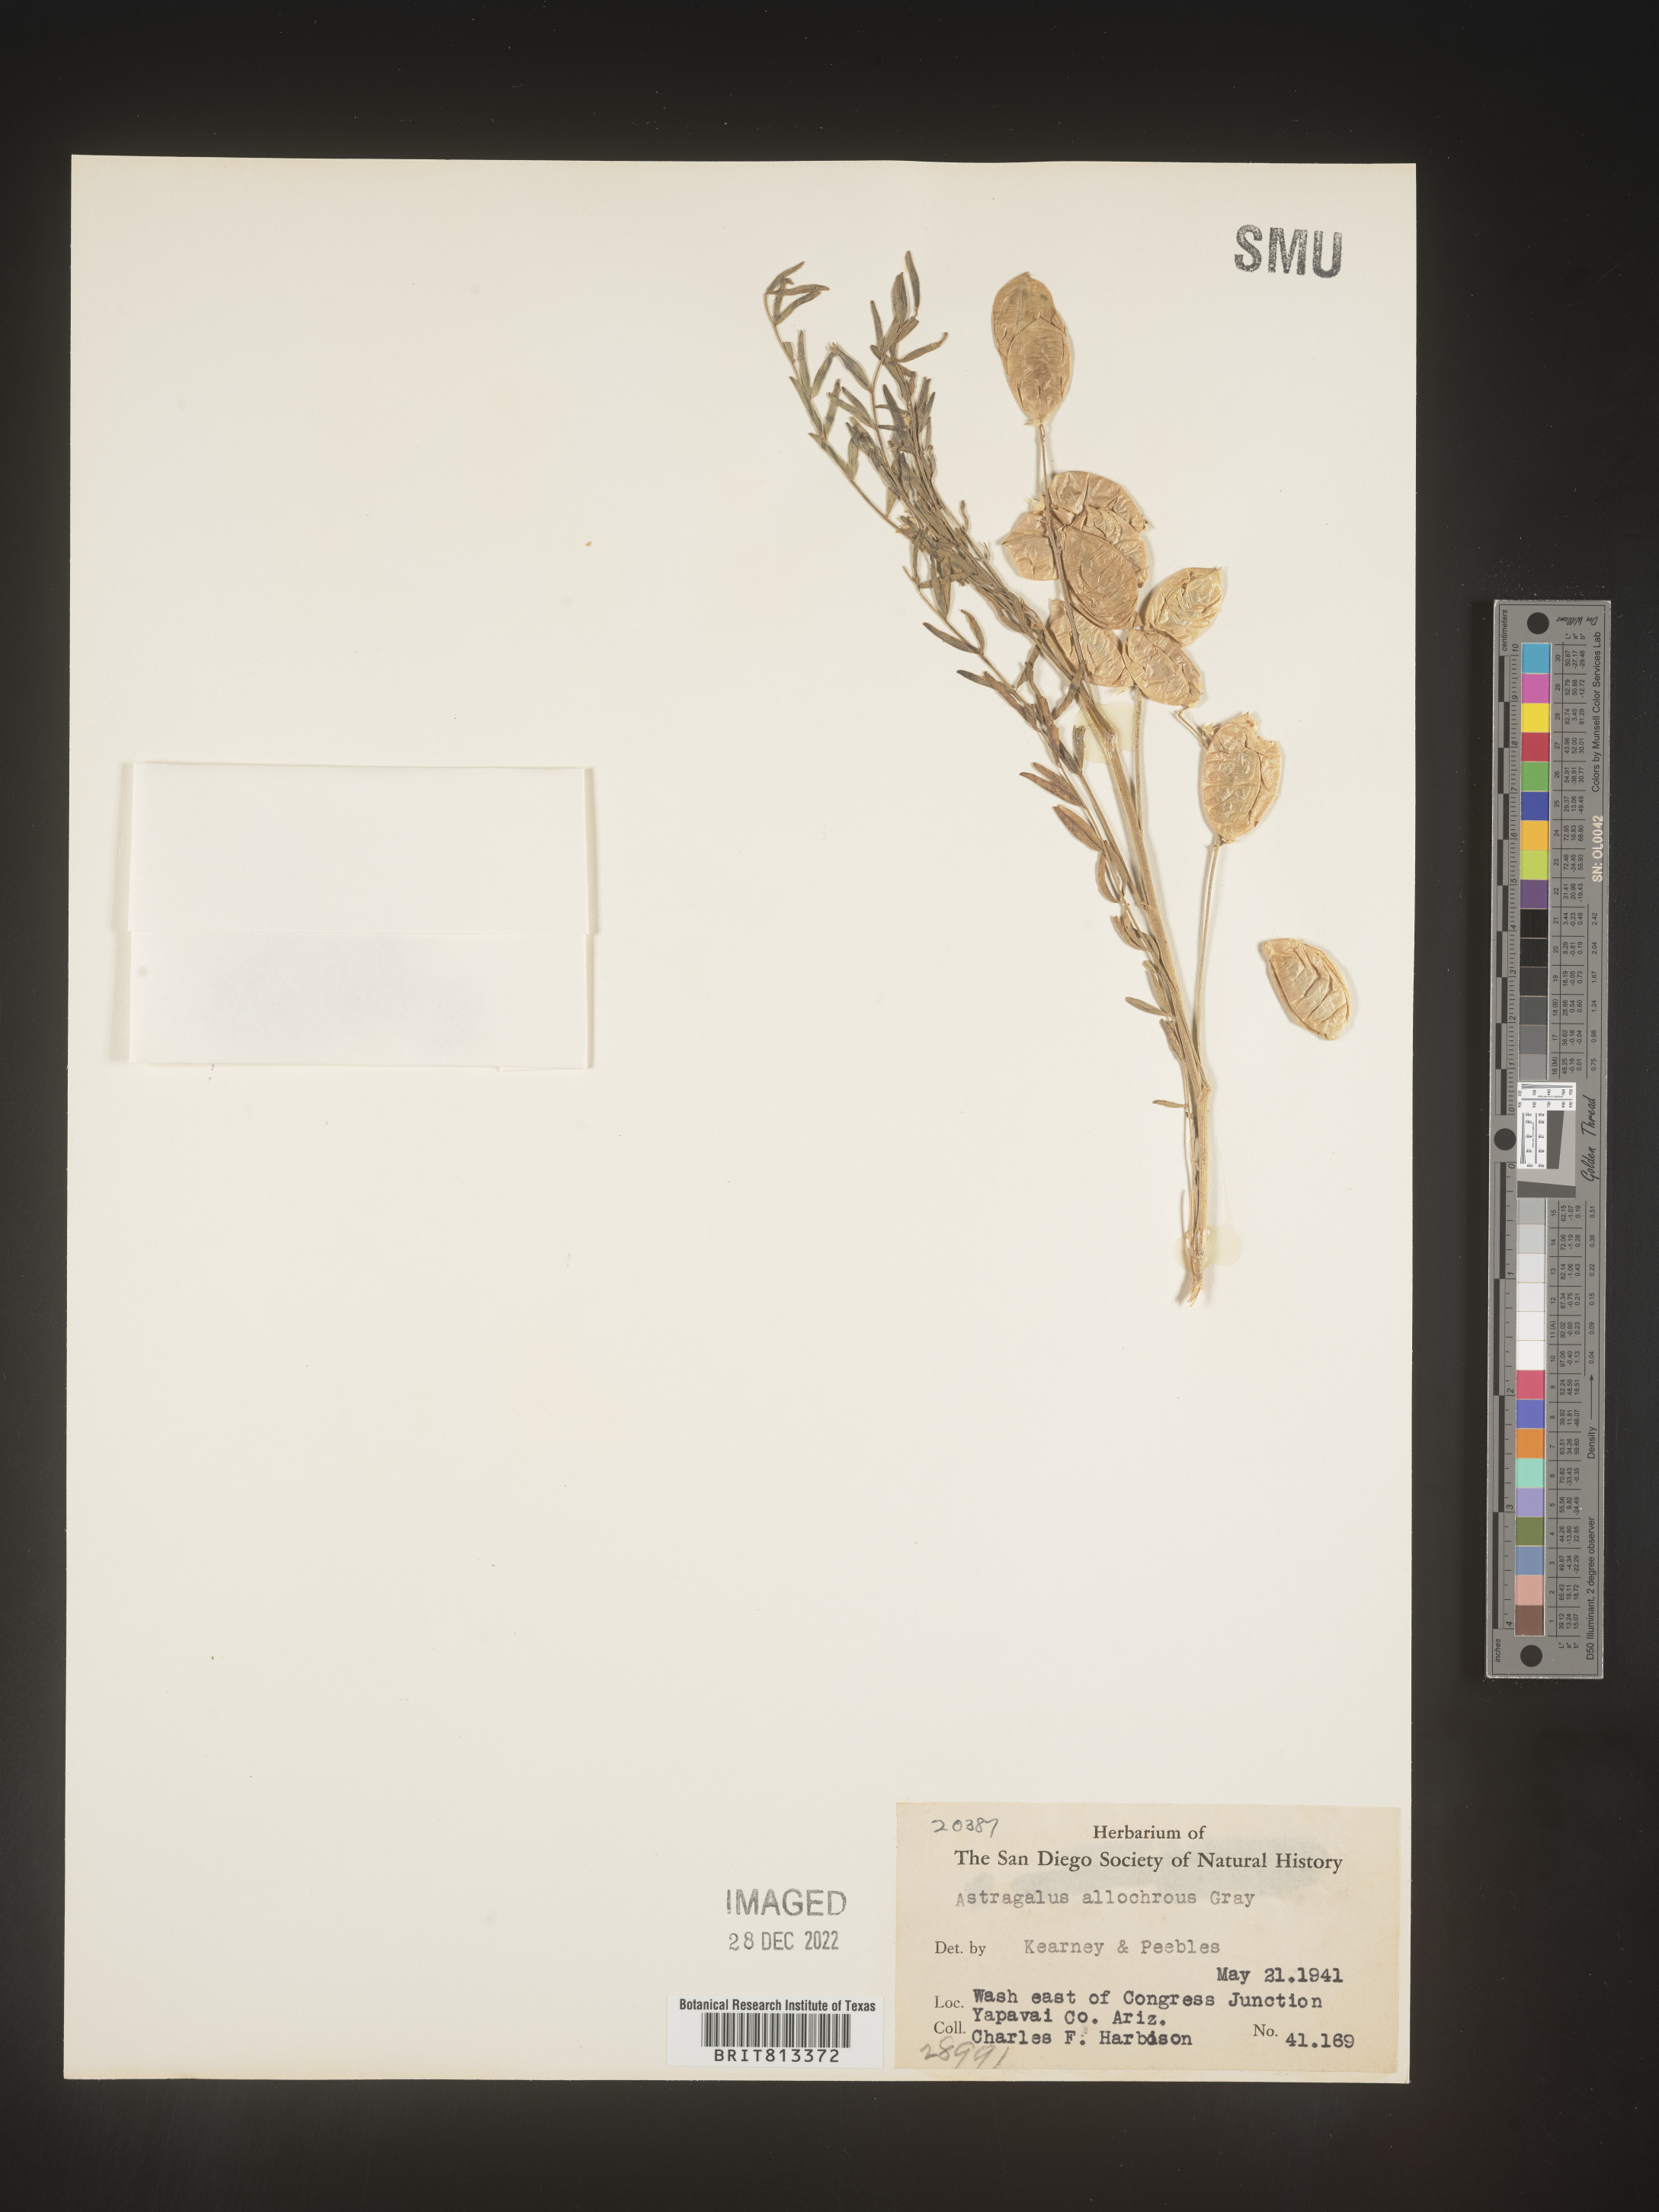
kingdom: Plantae
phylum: Tracheophyta
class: Magnoliopsida
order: Fabales
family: Fabaceae
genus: Astragalus
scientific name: Astragalus
